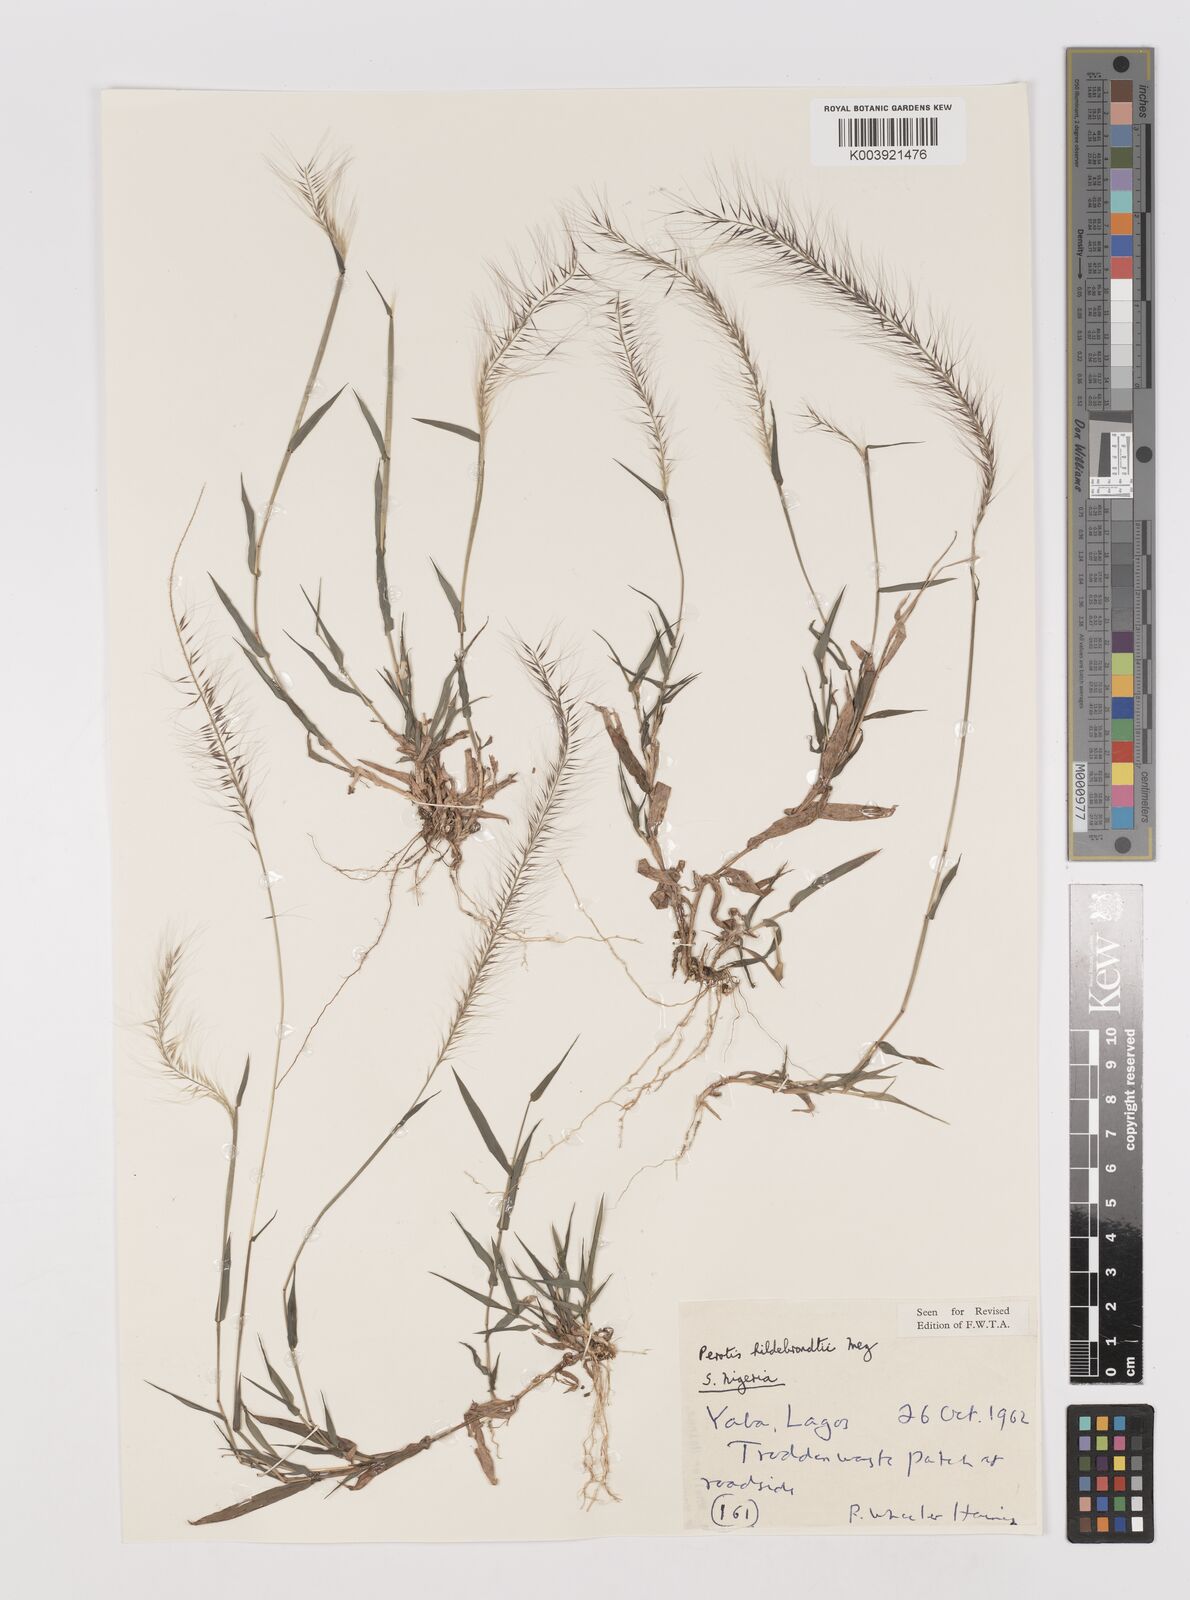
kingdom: Plantae
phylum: Tracheophyta
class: Liliopsida
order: Poales
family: Poaceae
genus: Perotis
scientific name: Perotis hildebrandtii
